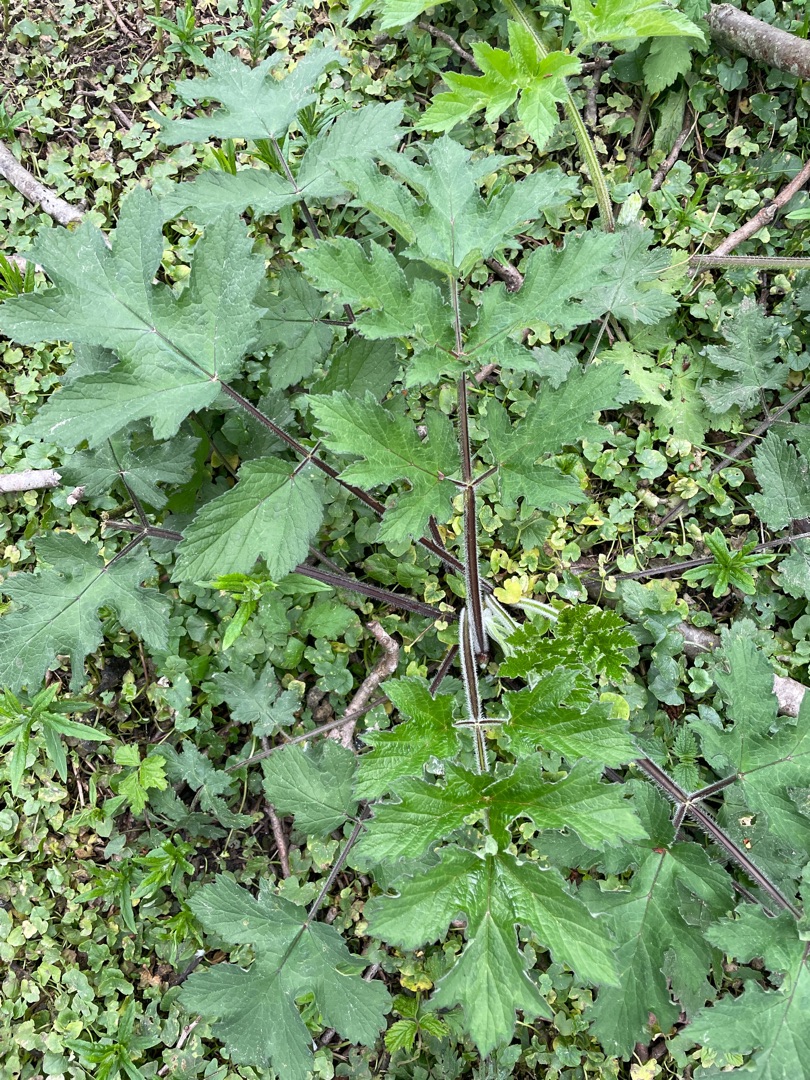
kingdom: Plantae
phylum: Tracheophyta
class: Magnoliopsida
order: Apiales
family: Apiaceae
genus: Heracleum
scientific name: Heracleum sphondylium
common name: Almindelig bjørneklo
